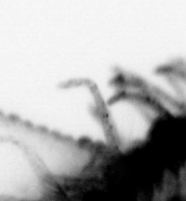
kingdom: Animalia
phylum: Annelida
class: Polychaeta
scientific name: Polychaeta
